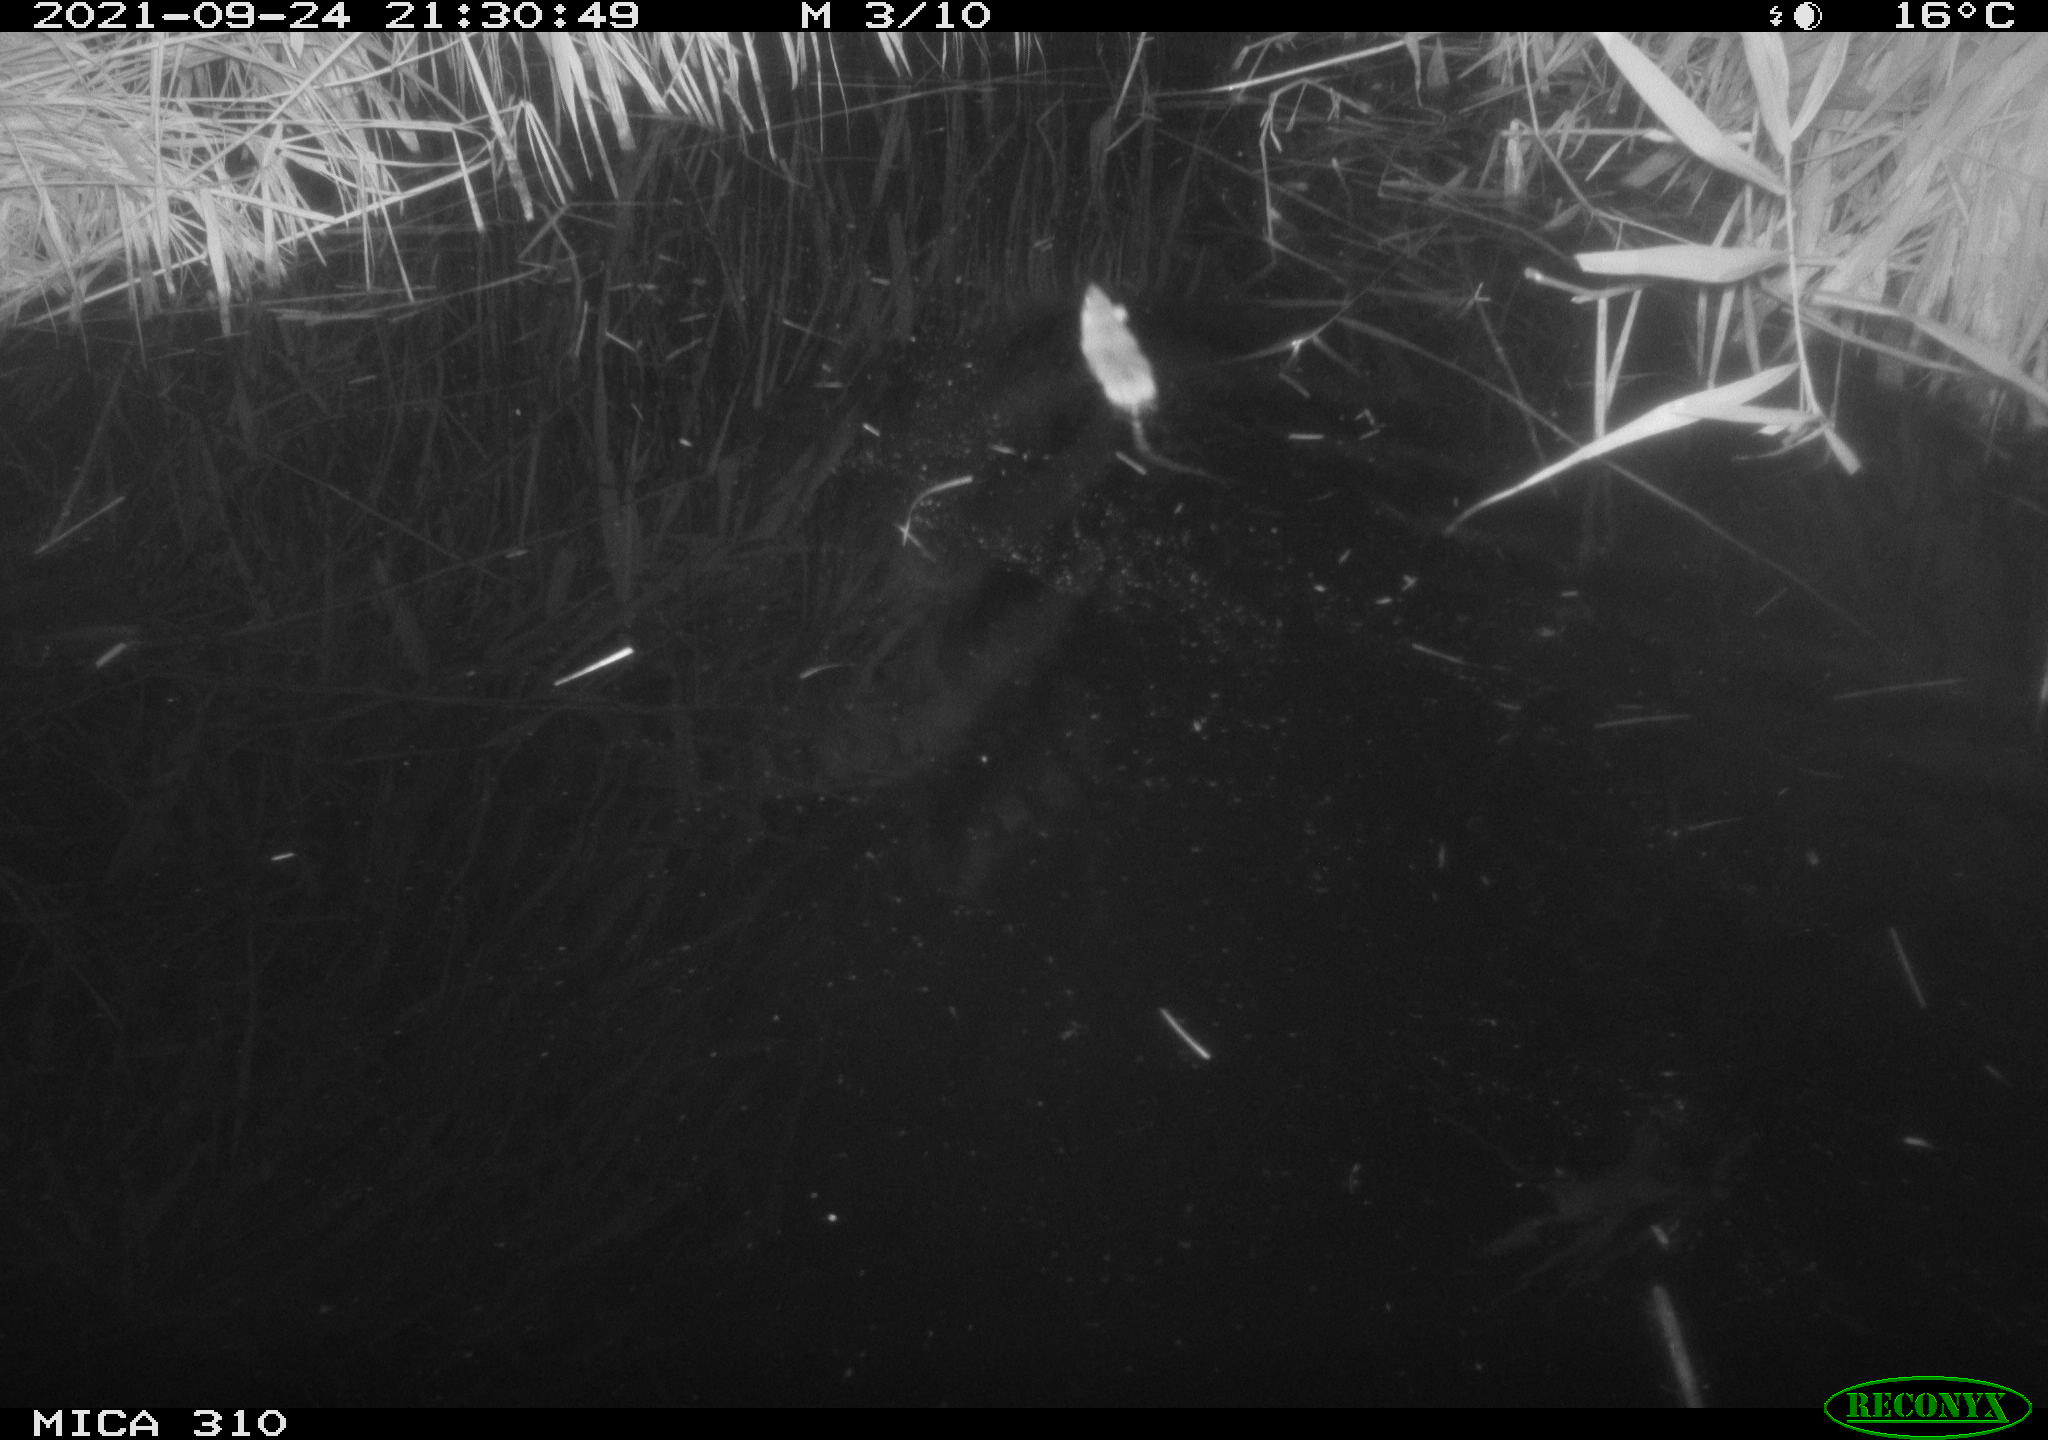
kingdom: Animalia
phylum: Chordata
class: Mammalia
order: Rodentia
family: Muridae
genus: Rattus
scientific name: Rattus norvegicus
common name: Brown rat
